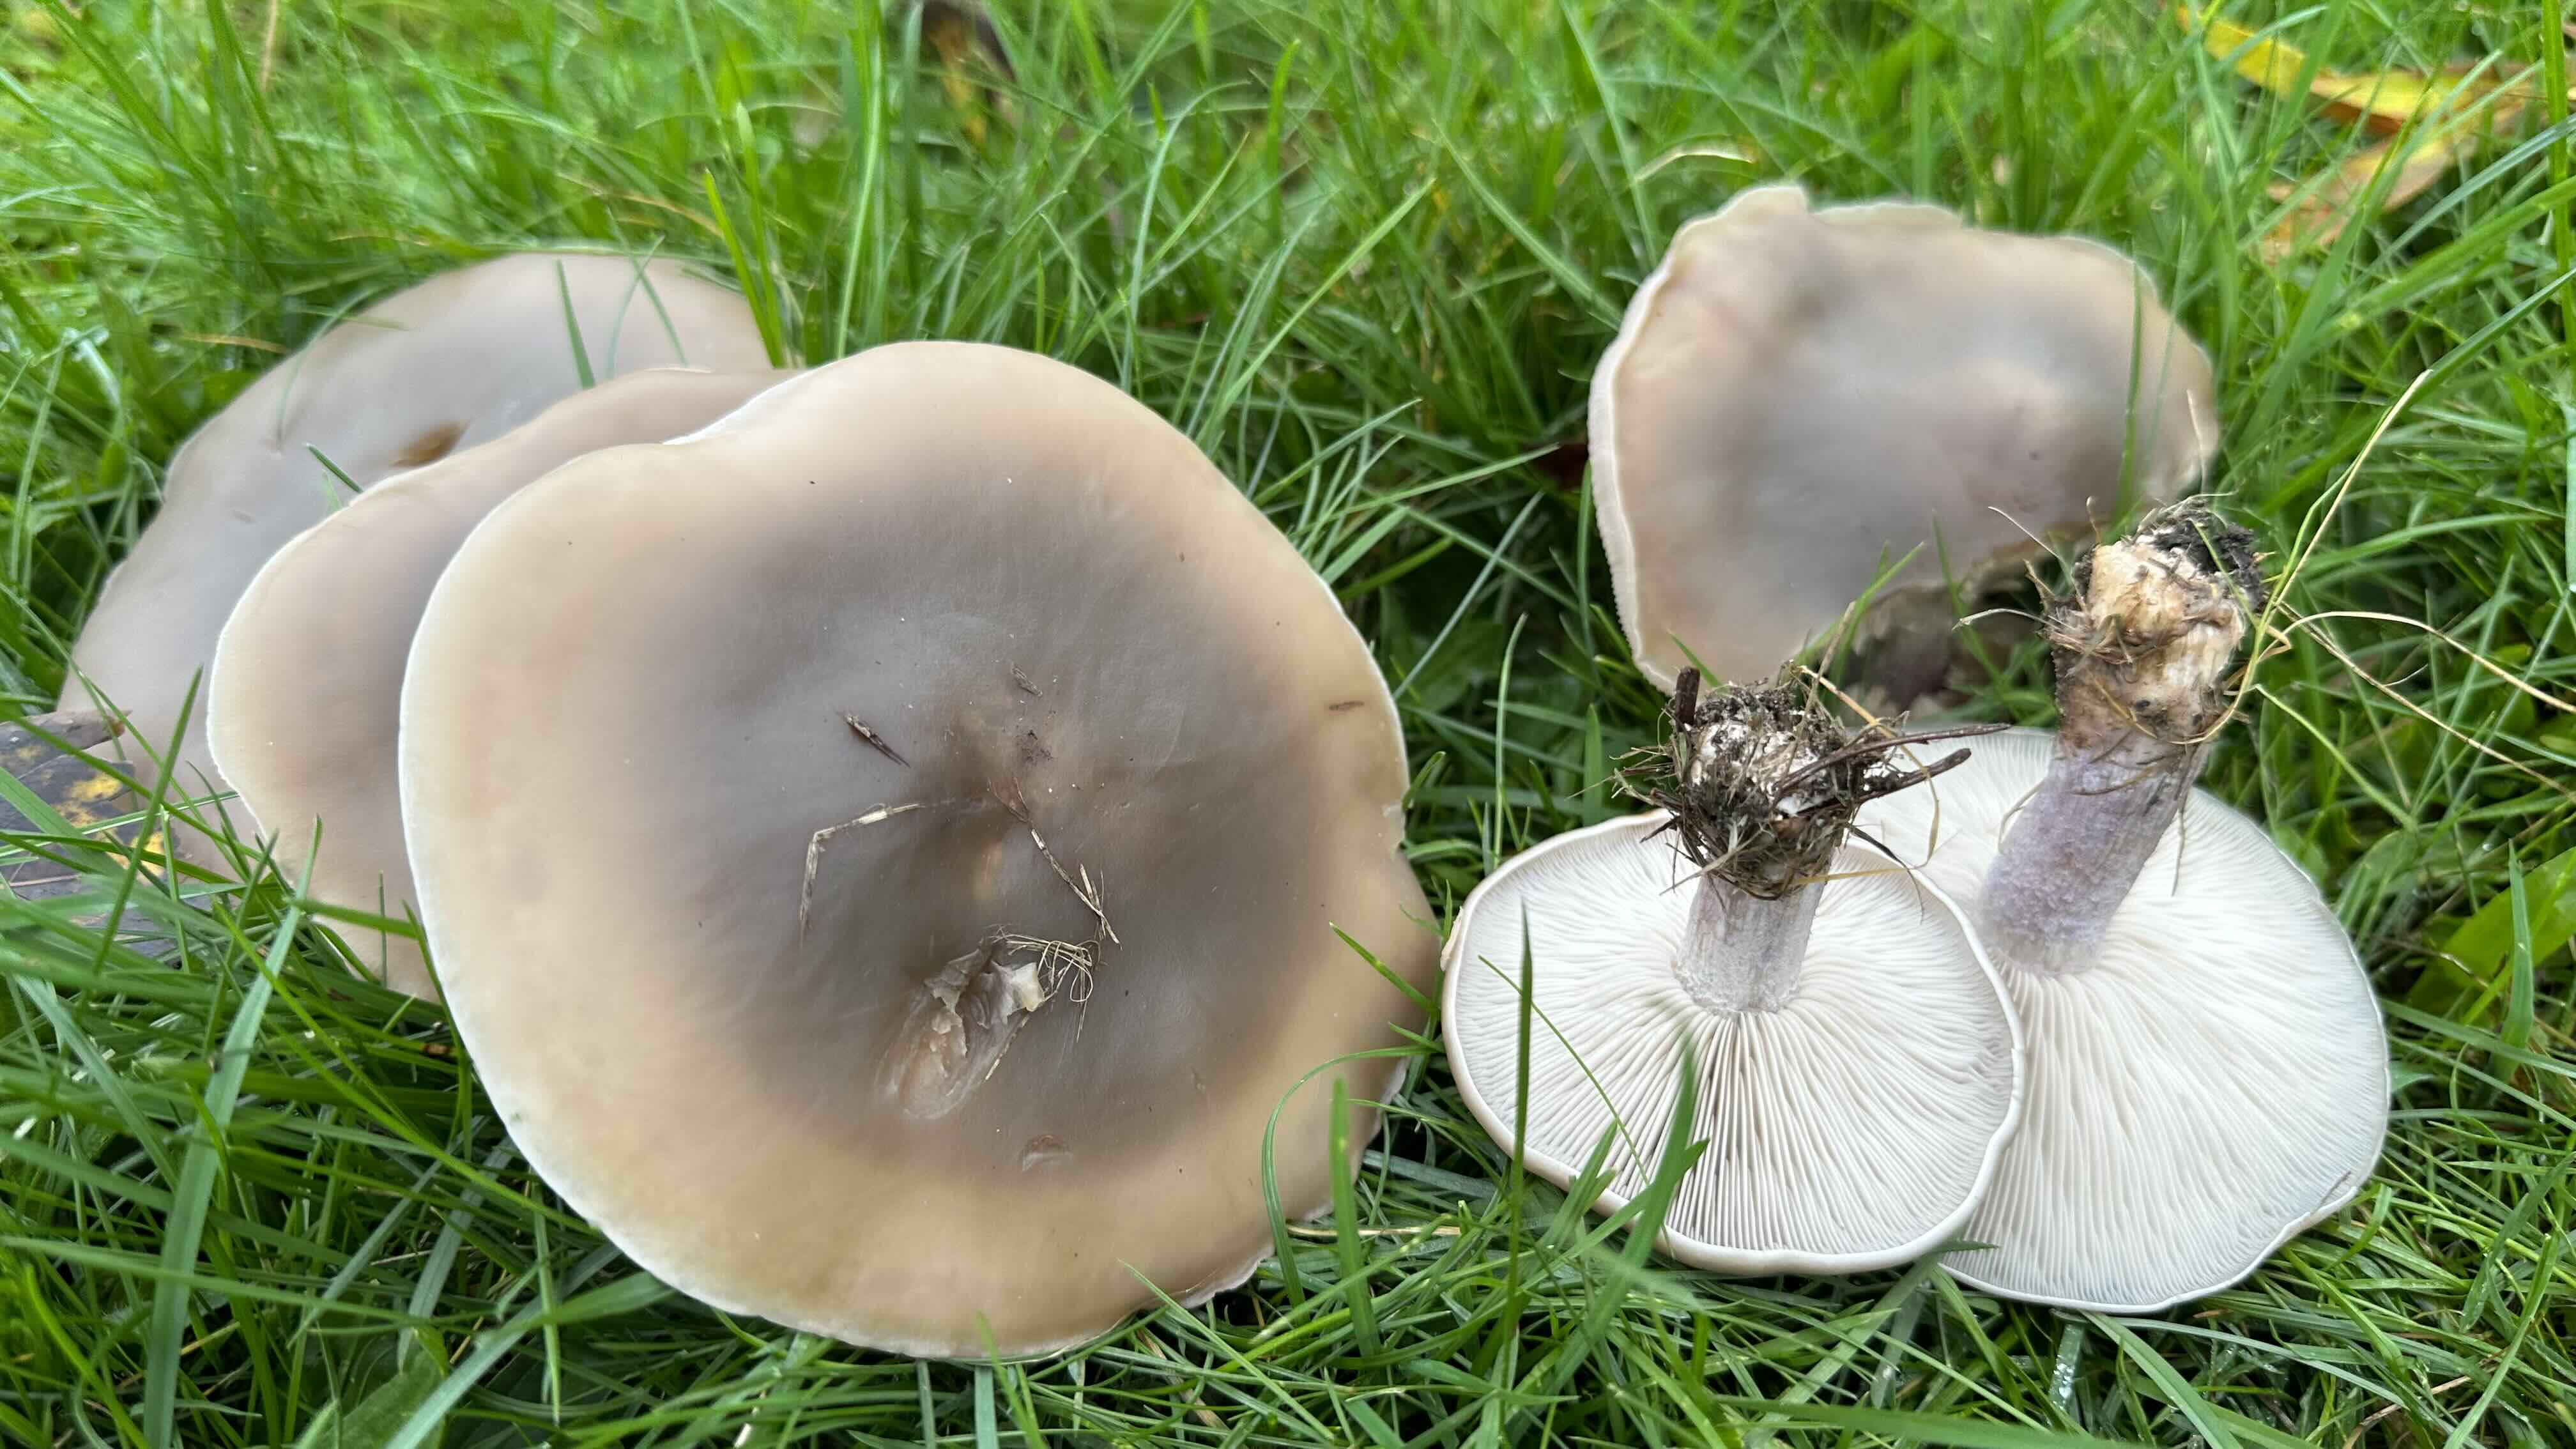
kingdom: Fungi
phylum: Basidiomycota
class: Agaricomycetes
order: Agaricales
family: Tricholomataceae
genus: Lepista
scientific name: Lepista personata
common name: bleg hekseringshat
